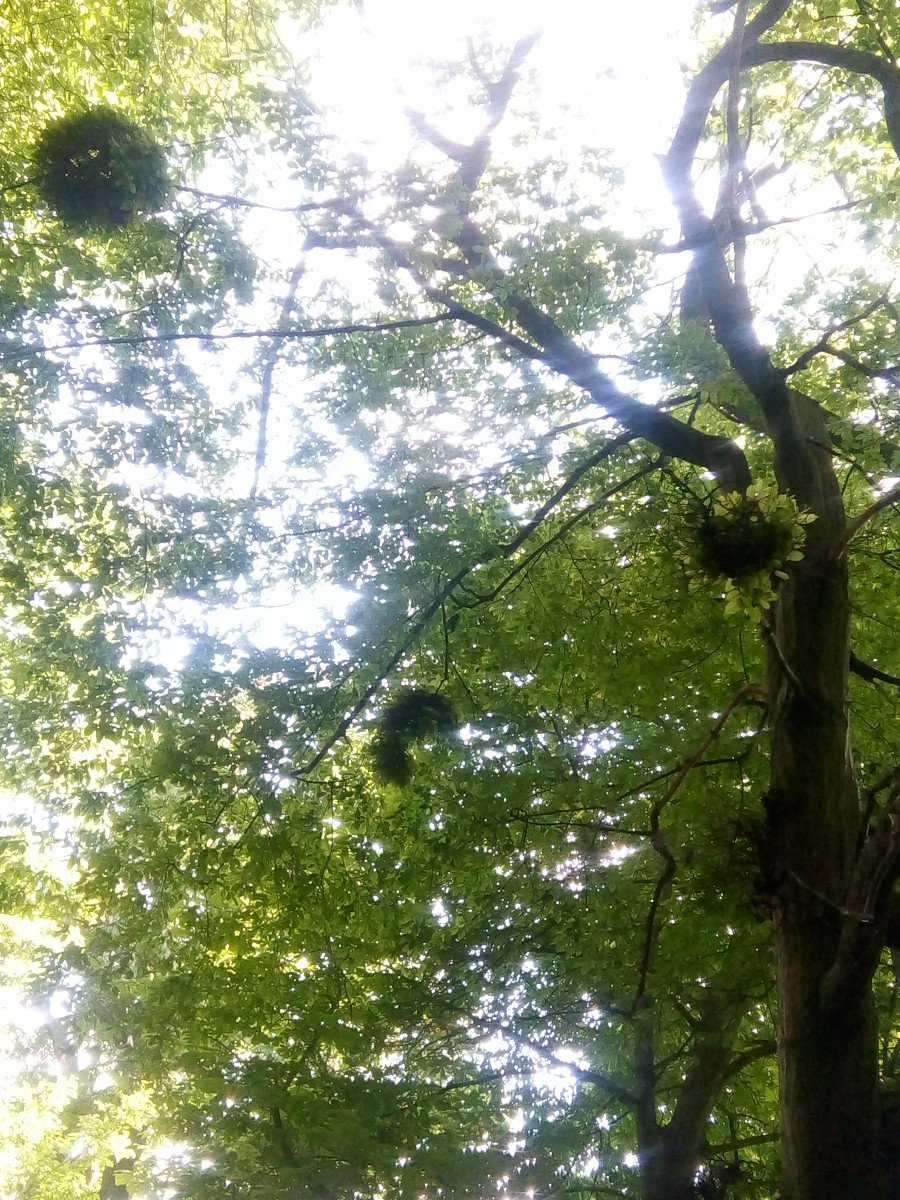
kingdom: Fungi
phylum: Ascomycota
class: Taphrinomycetes
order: Taphrinales
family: Taphrinaceae
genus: Taphrina
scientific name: Taphrina carpini
